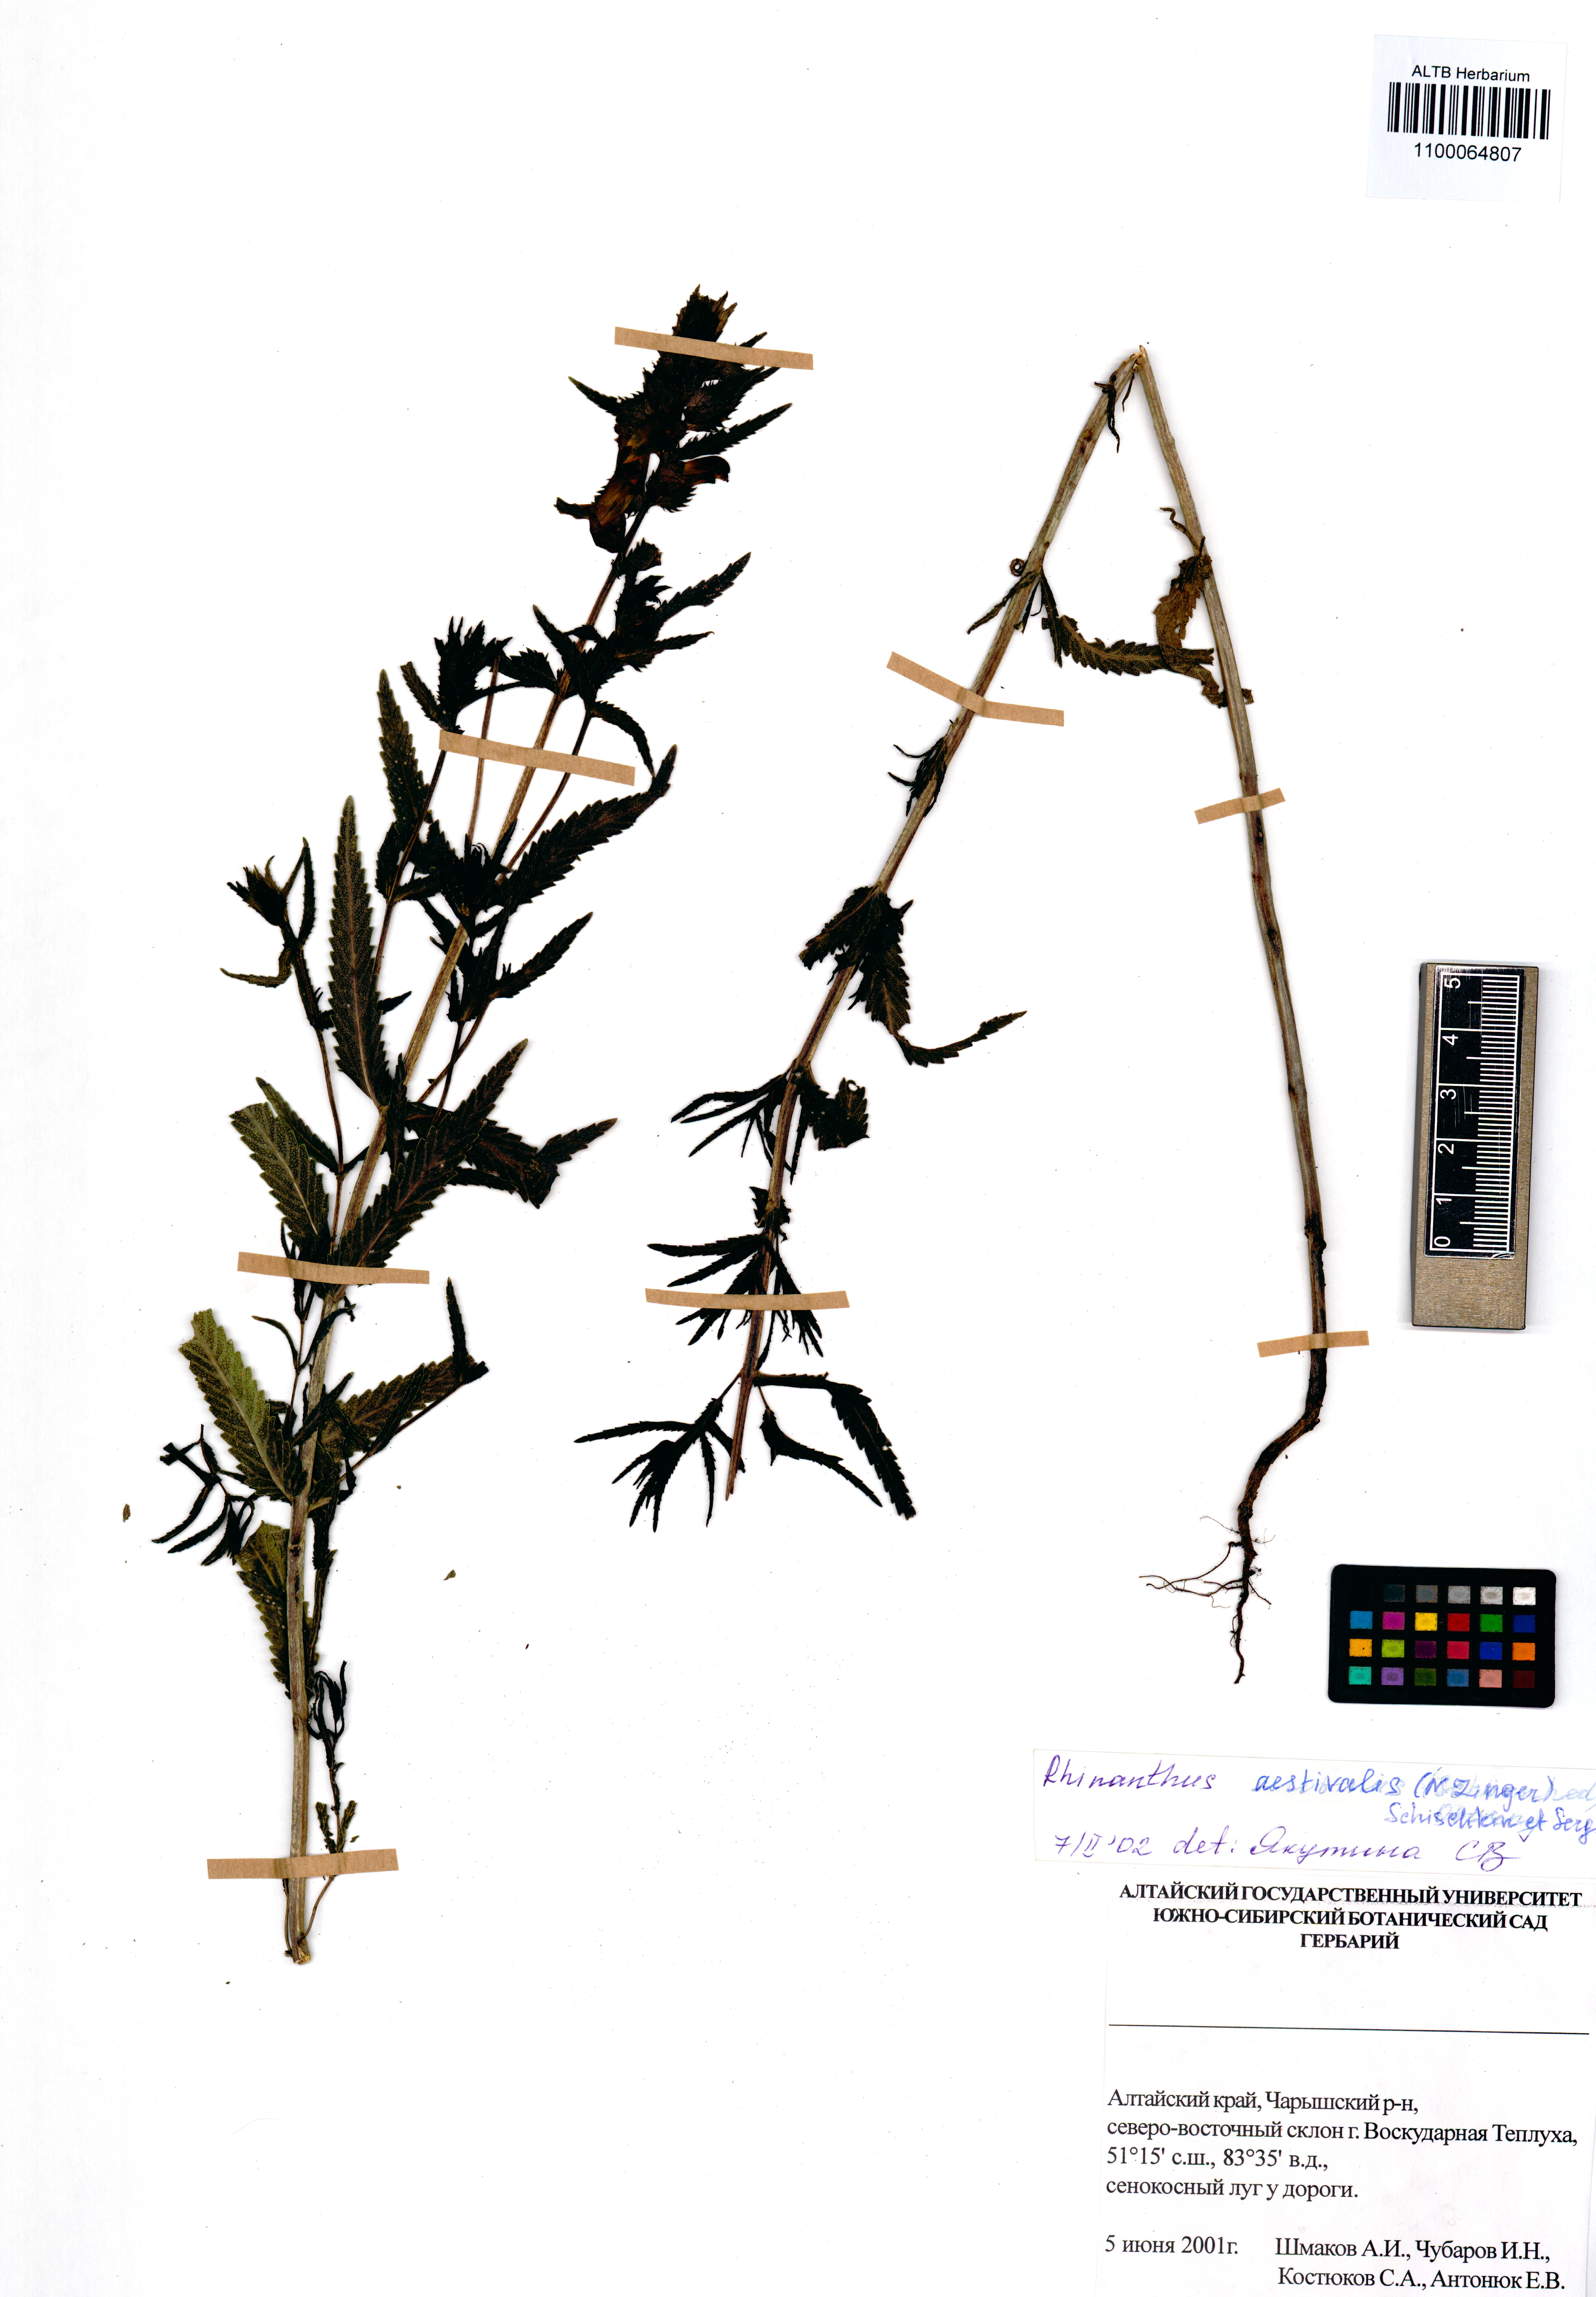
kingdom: Plantae
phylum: Tracheophyta
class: Magnoliopsida
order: Lamiales
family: Orobanchaceae
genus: Rhinanthus
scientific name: Rhinanthus serotinus
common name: Late-flowering yellow rattle
